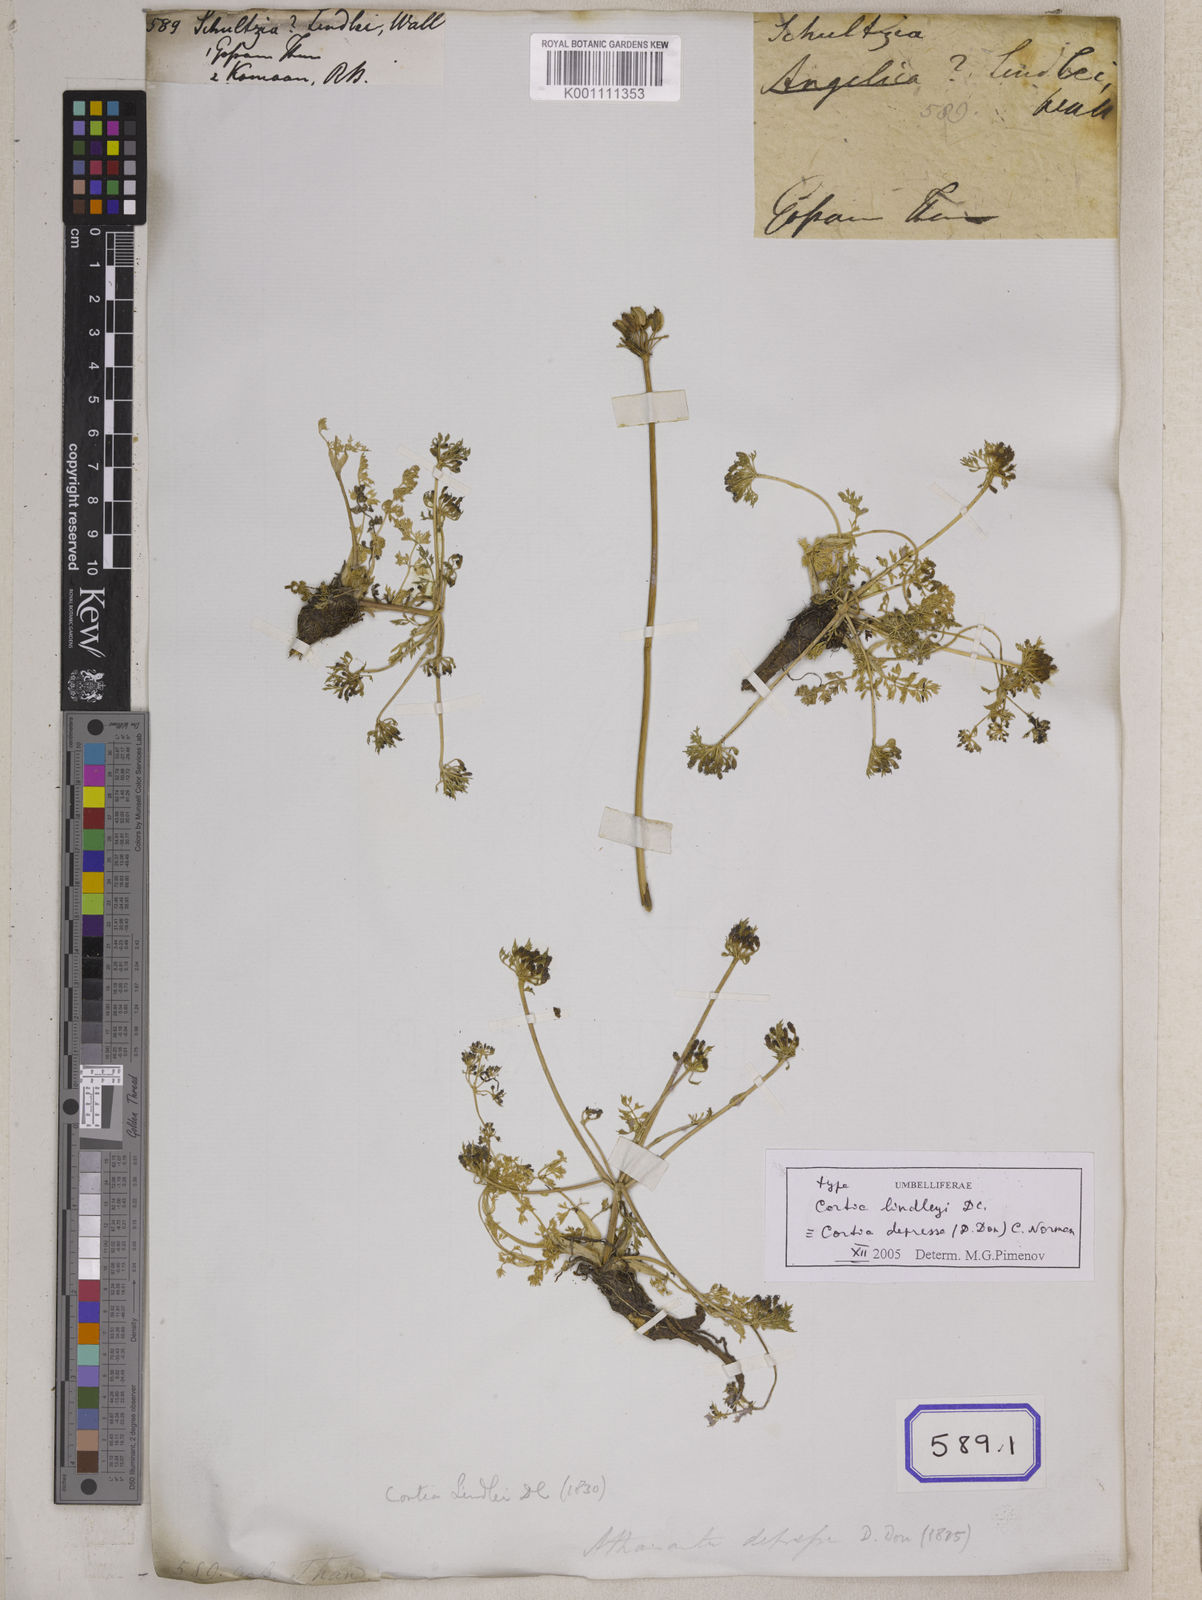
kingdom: Plantae
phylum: Tracheophyta
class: Magnoliopsida
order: Lamiales
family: Acanthaceae
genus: Herpetacanthus
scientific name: Herpetacanthus
